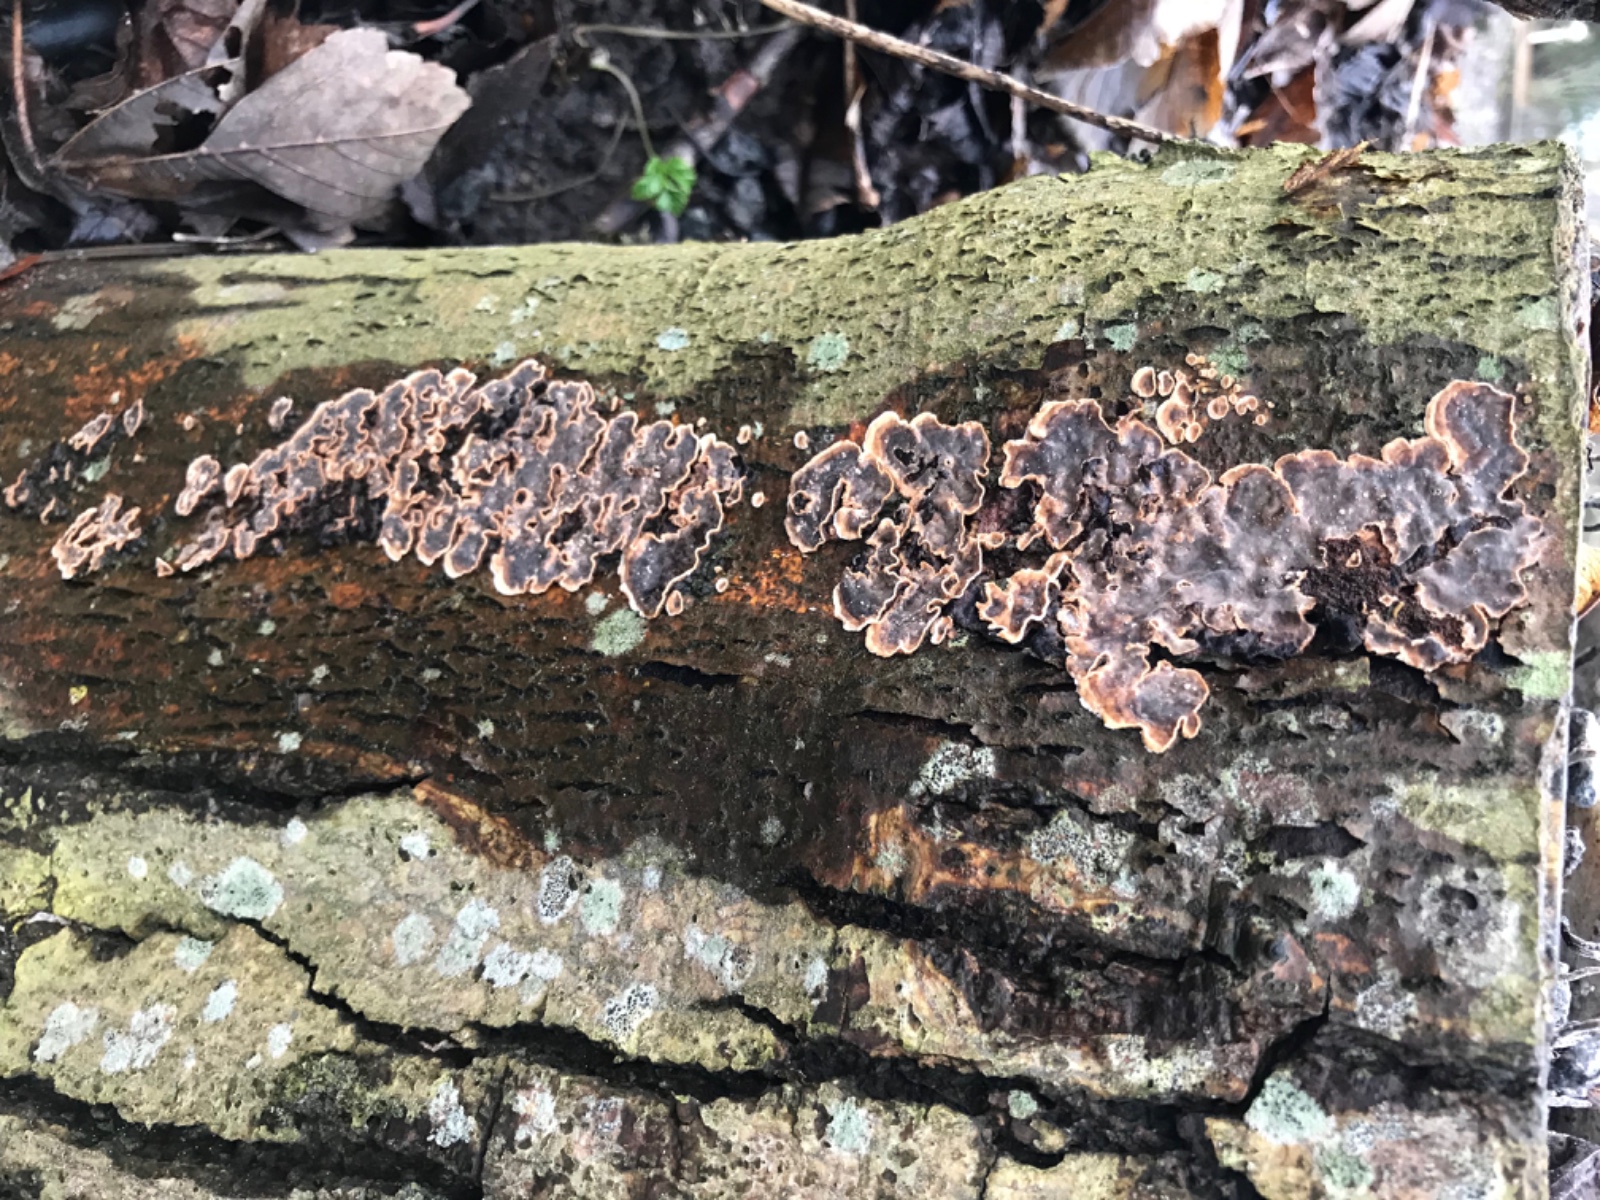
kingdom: Fungi
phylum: Basidiomycota
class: Agaricomycetes
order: Polyporales
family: Meruliaceae
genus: Phlebia
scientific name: Phlebia radiata
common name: stråle-åresvamp
